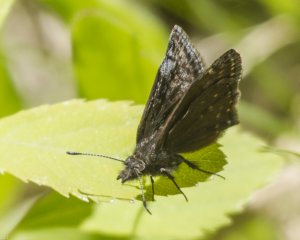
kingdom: Animalia
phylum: Arthropoda
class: Insecta
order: Lepidoptera
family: Hesperiidae
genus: Erynnis
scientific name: Erynnis icelus
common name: Dreamy Duskywing
